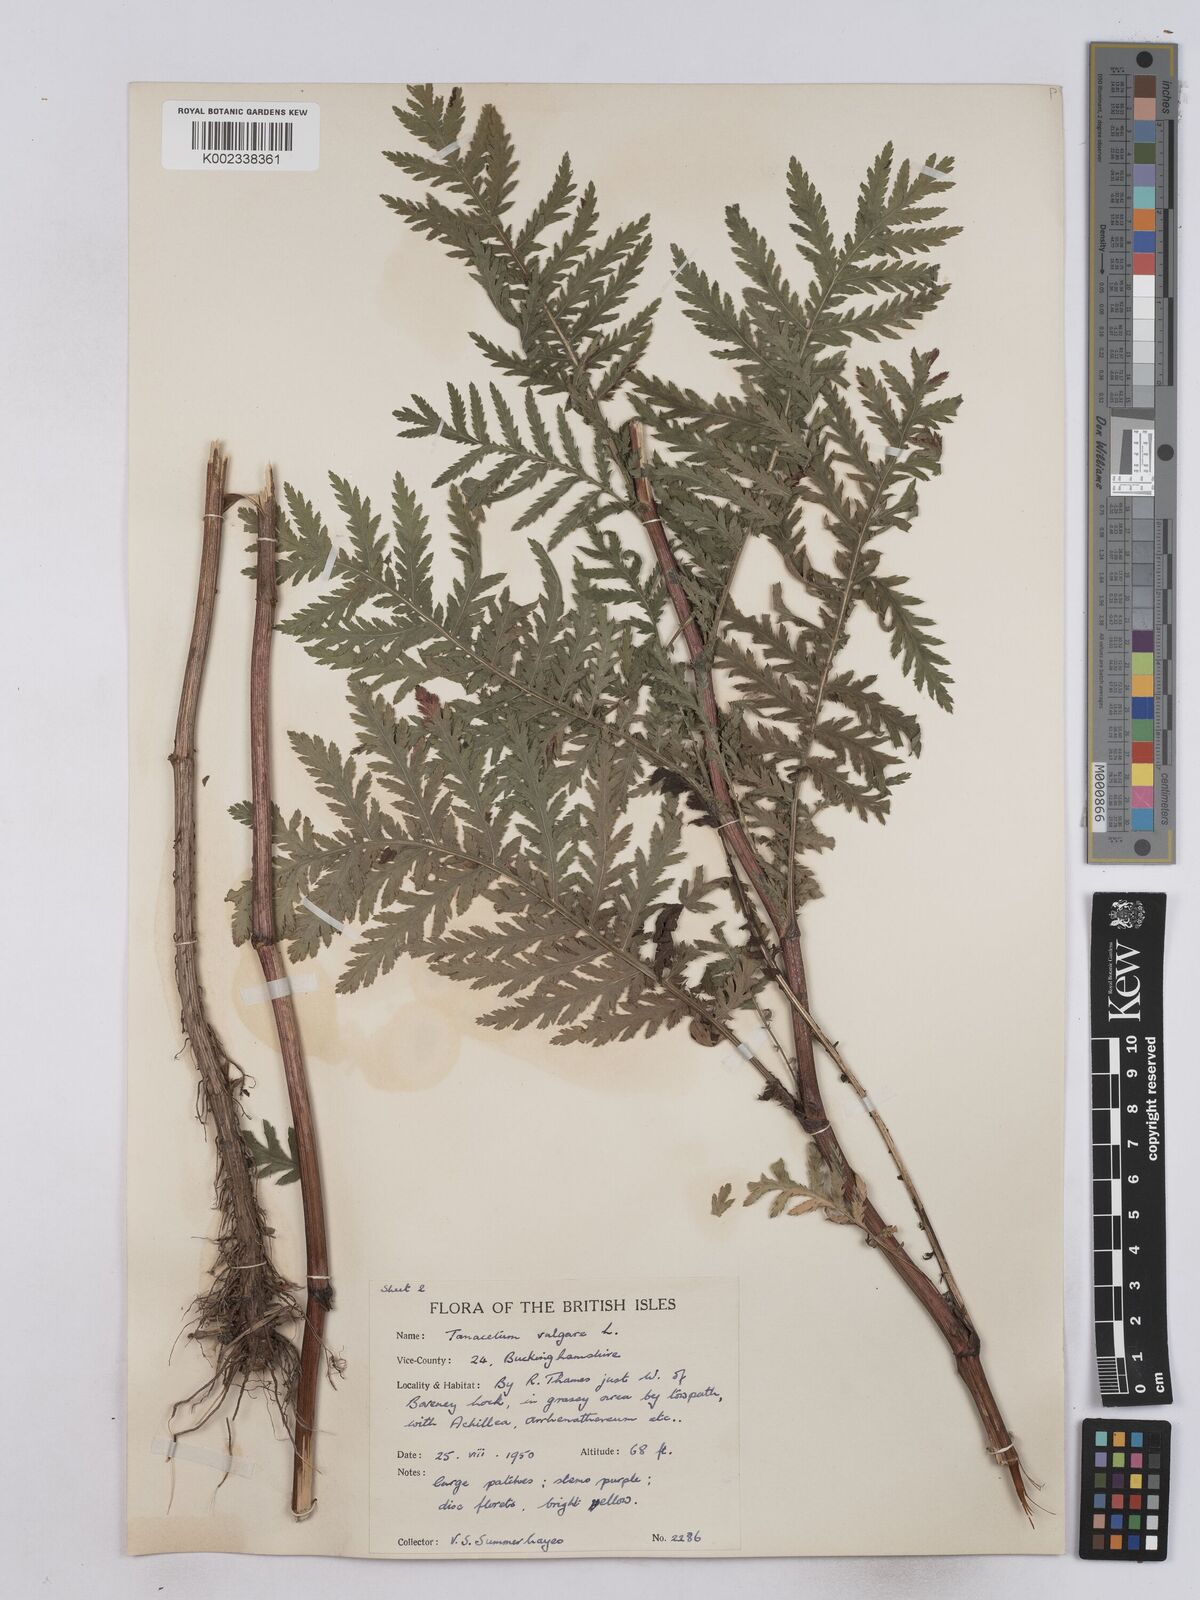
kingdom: Plantae
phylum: Tracheophyta
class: Magnoliopsida
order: Asterales
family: Asteraceae
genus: Tanacetum
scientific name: Tanacetum vulgare
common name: Common tansy
